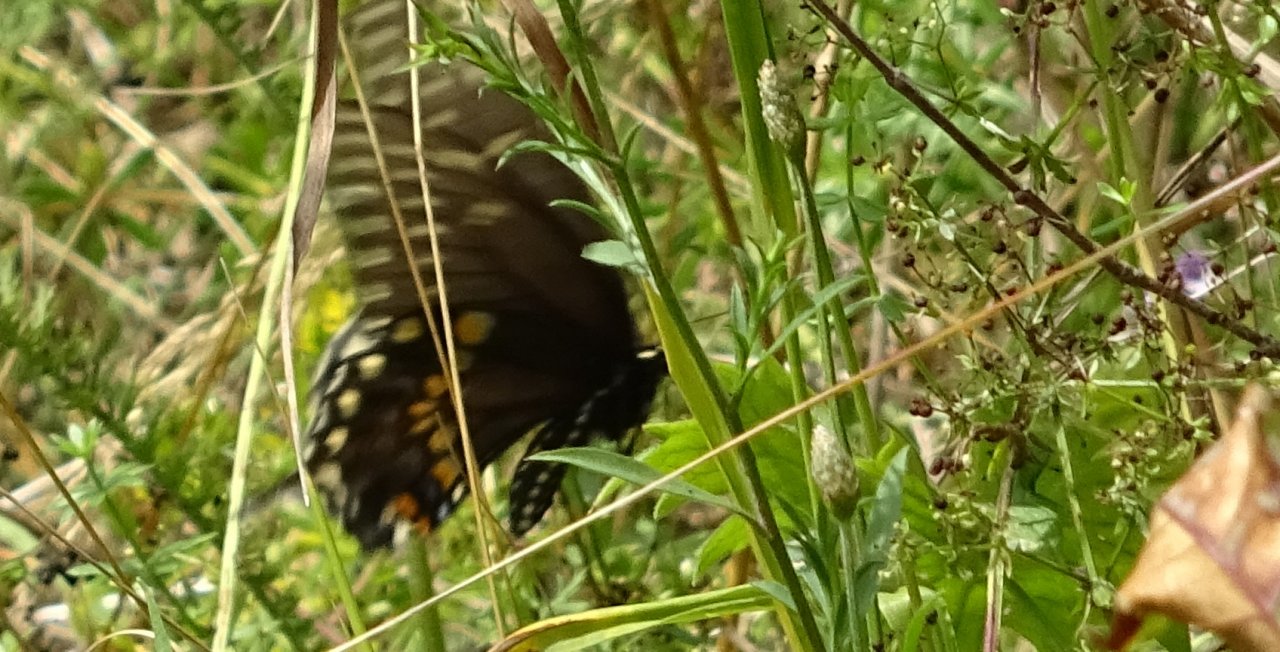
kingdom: Animalia
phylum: Arthropoda
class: Insecta
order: Lepidoptera
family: Papilionidae
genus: Papilio
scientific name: Papilio polyxenes
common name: Black Swallowtail
